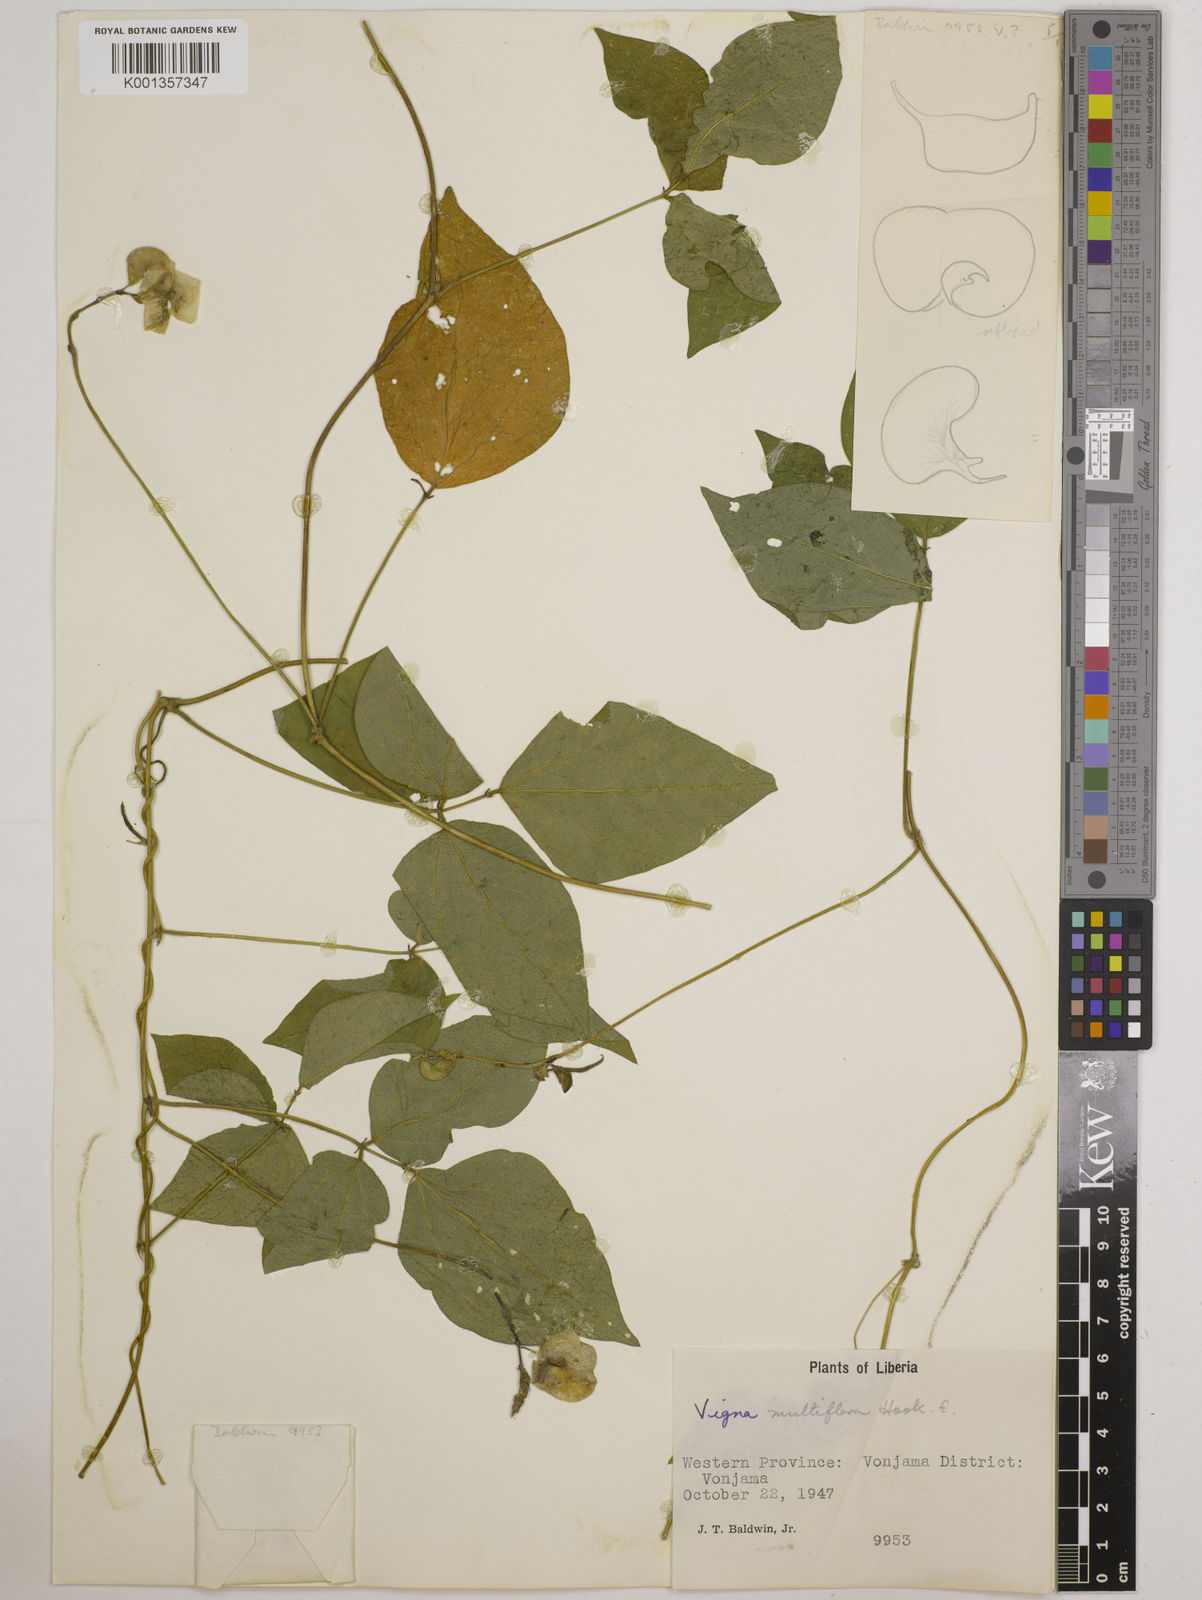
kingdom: Plantae
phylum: Tracheophyta
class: Magnoliopsida
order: Fabales
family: Fabaceae
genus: Vigna
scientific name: Vigna gracilis
